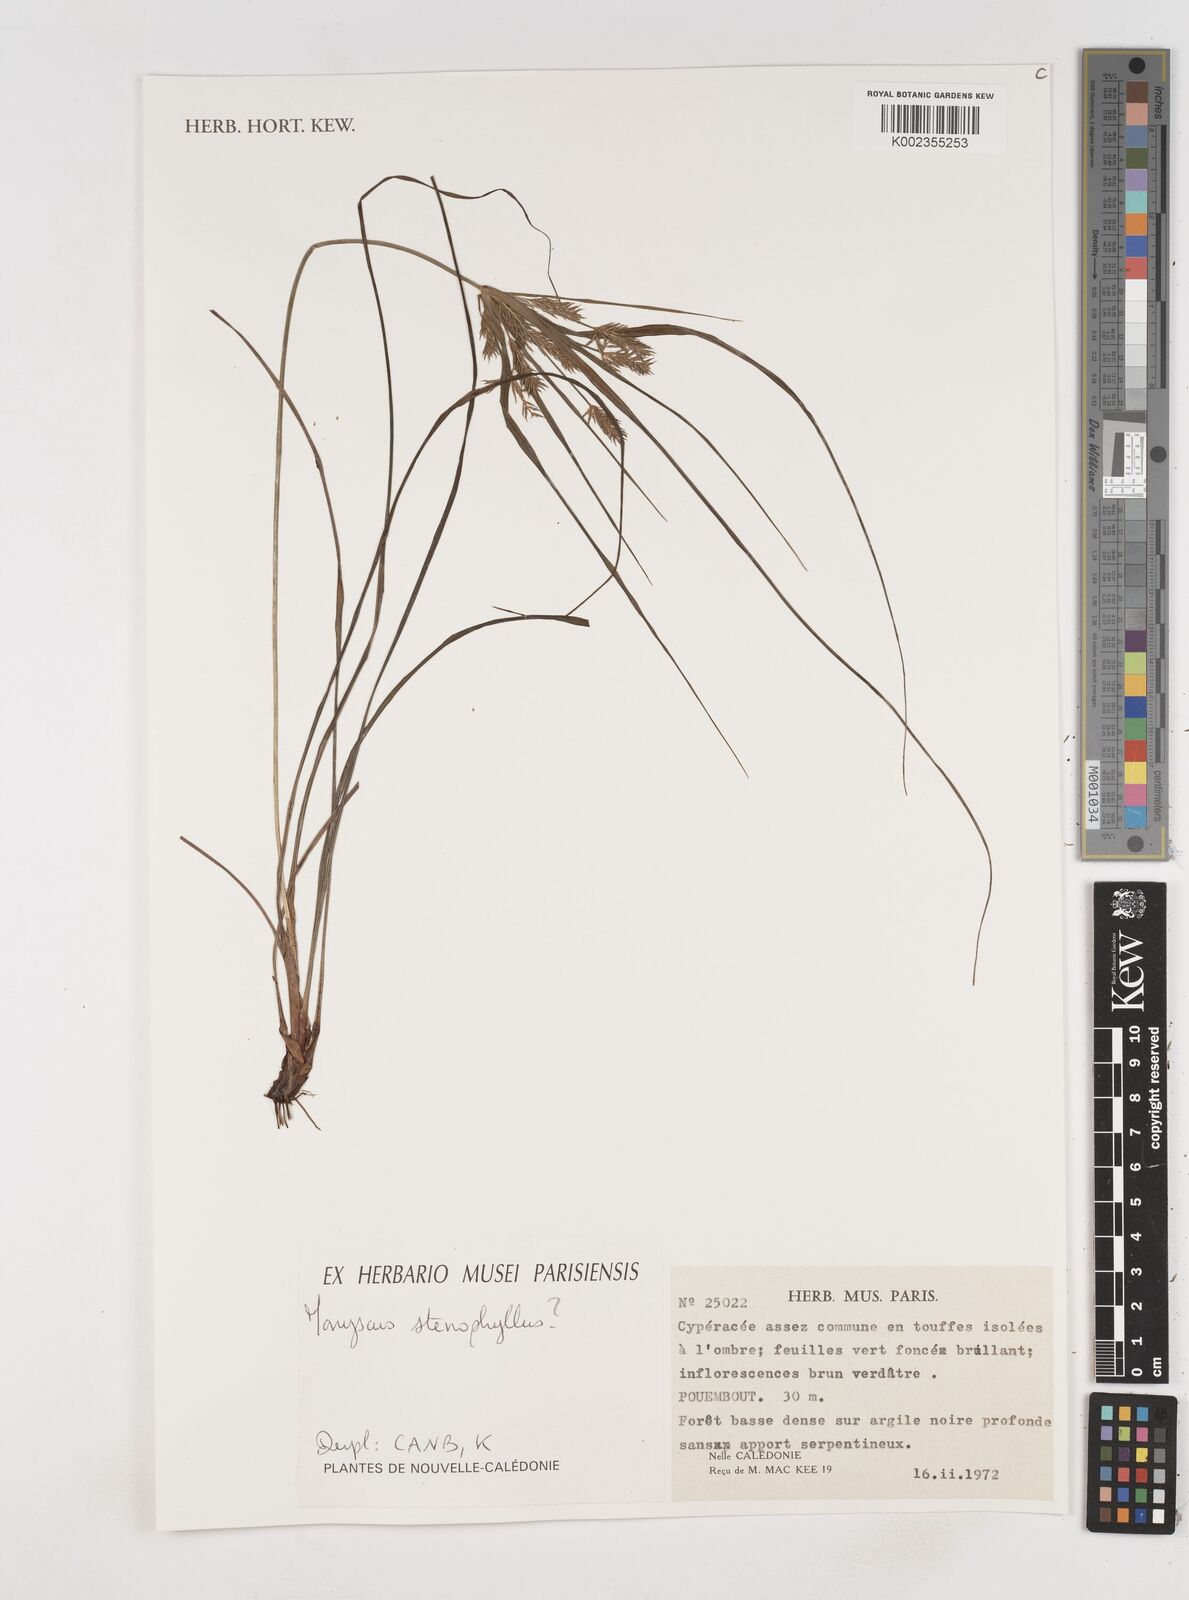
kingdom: Plantae
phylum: Tracheophyta
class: Liliopsida
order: Poales
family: Cyperaceae
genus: Cyperus
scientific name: Cyperus
